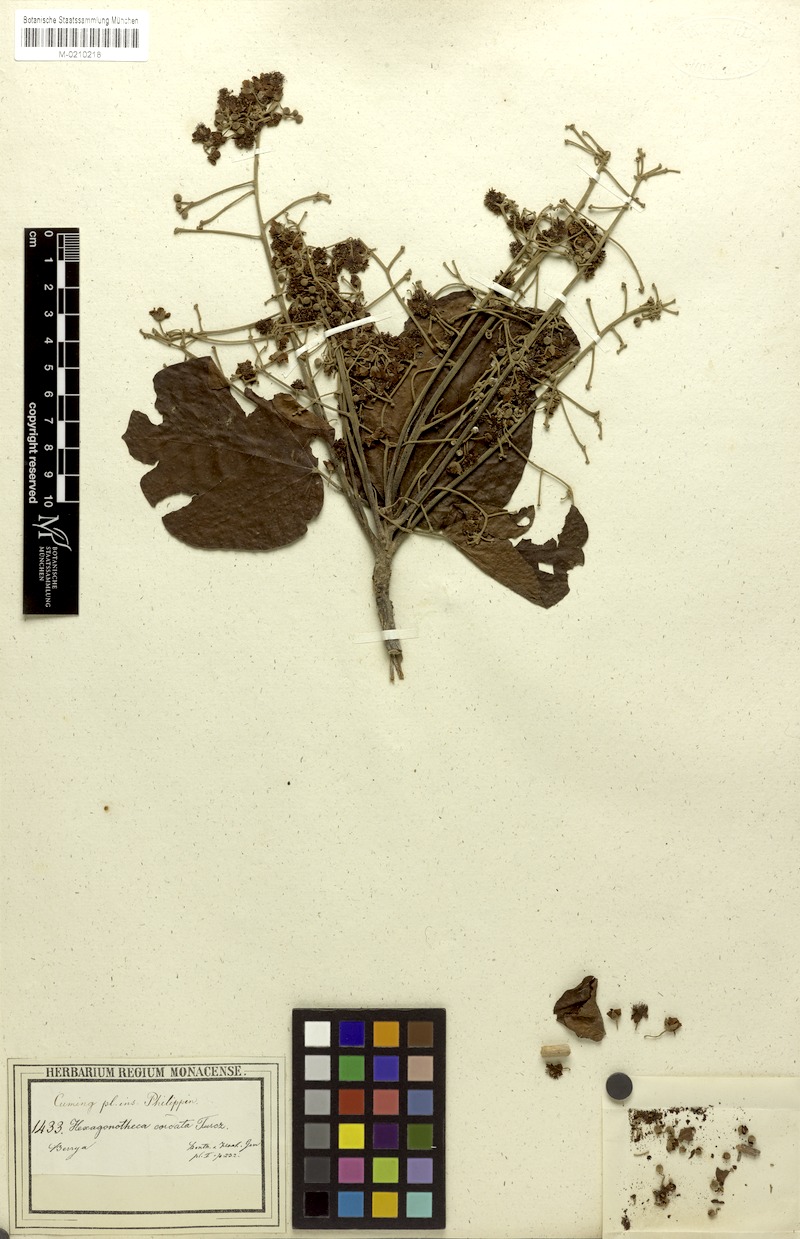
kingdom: Plantae
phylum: Tracheophyta
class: Magnoliopsida
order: Malvales
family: Malvaceae
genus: Berrya
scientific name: Berrya cordifolia
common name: Trincomalee
